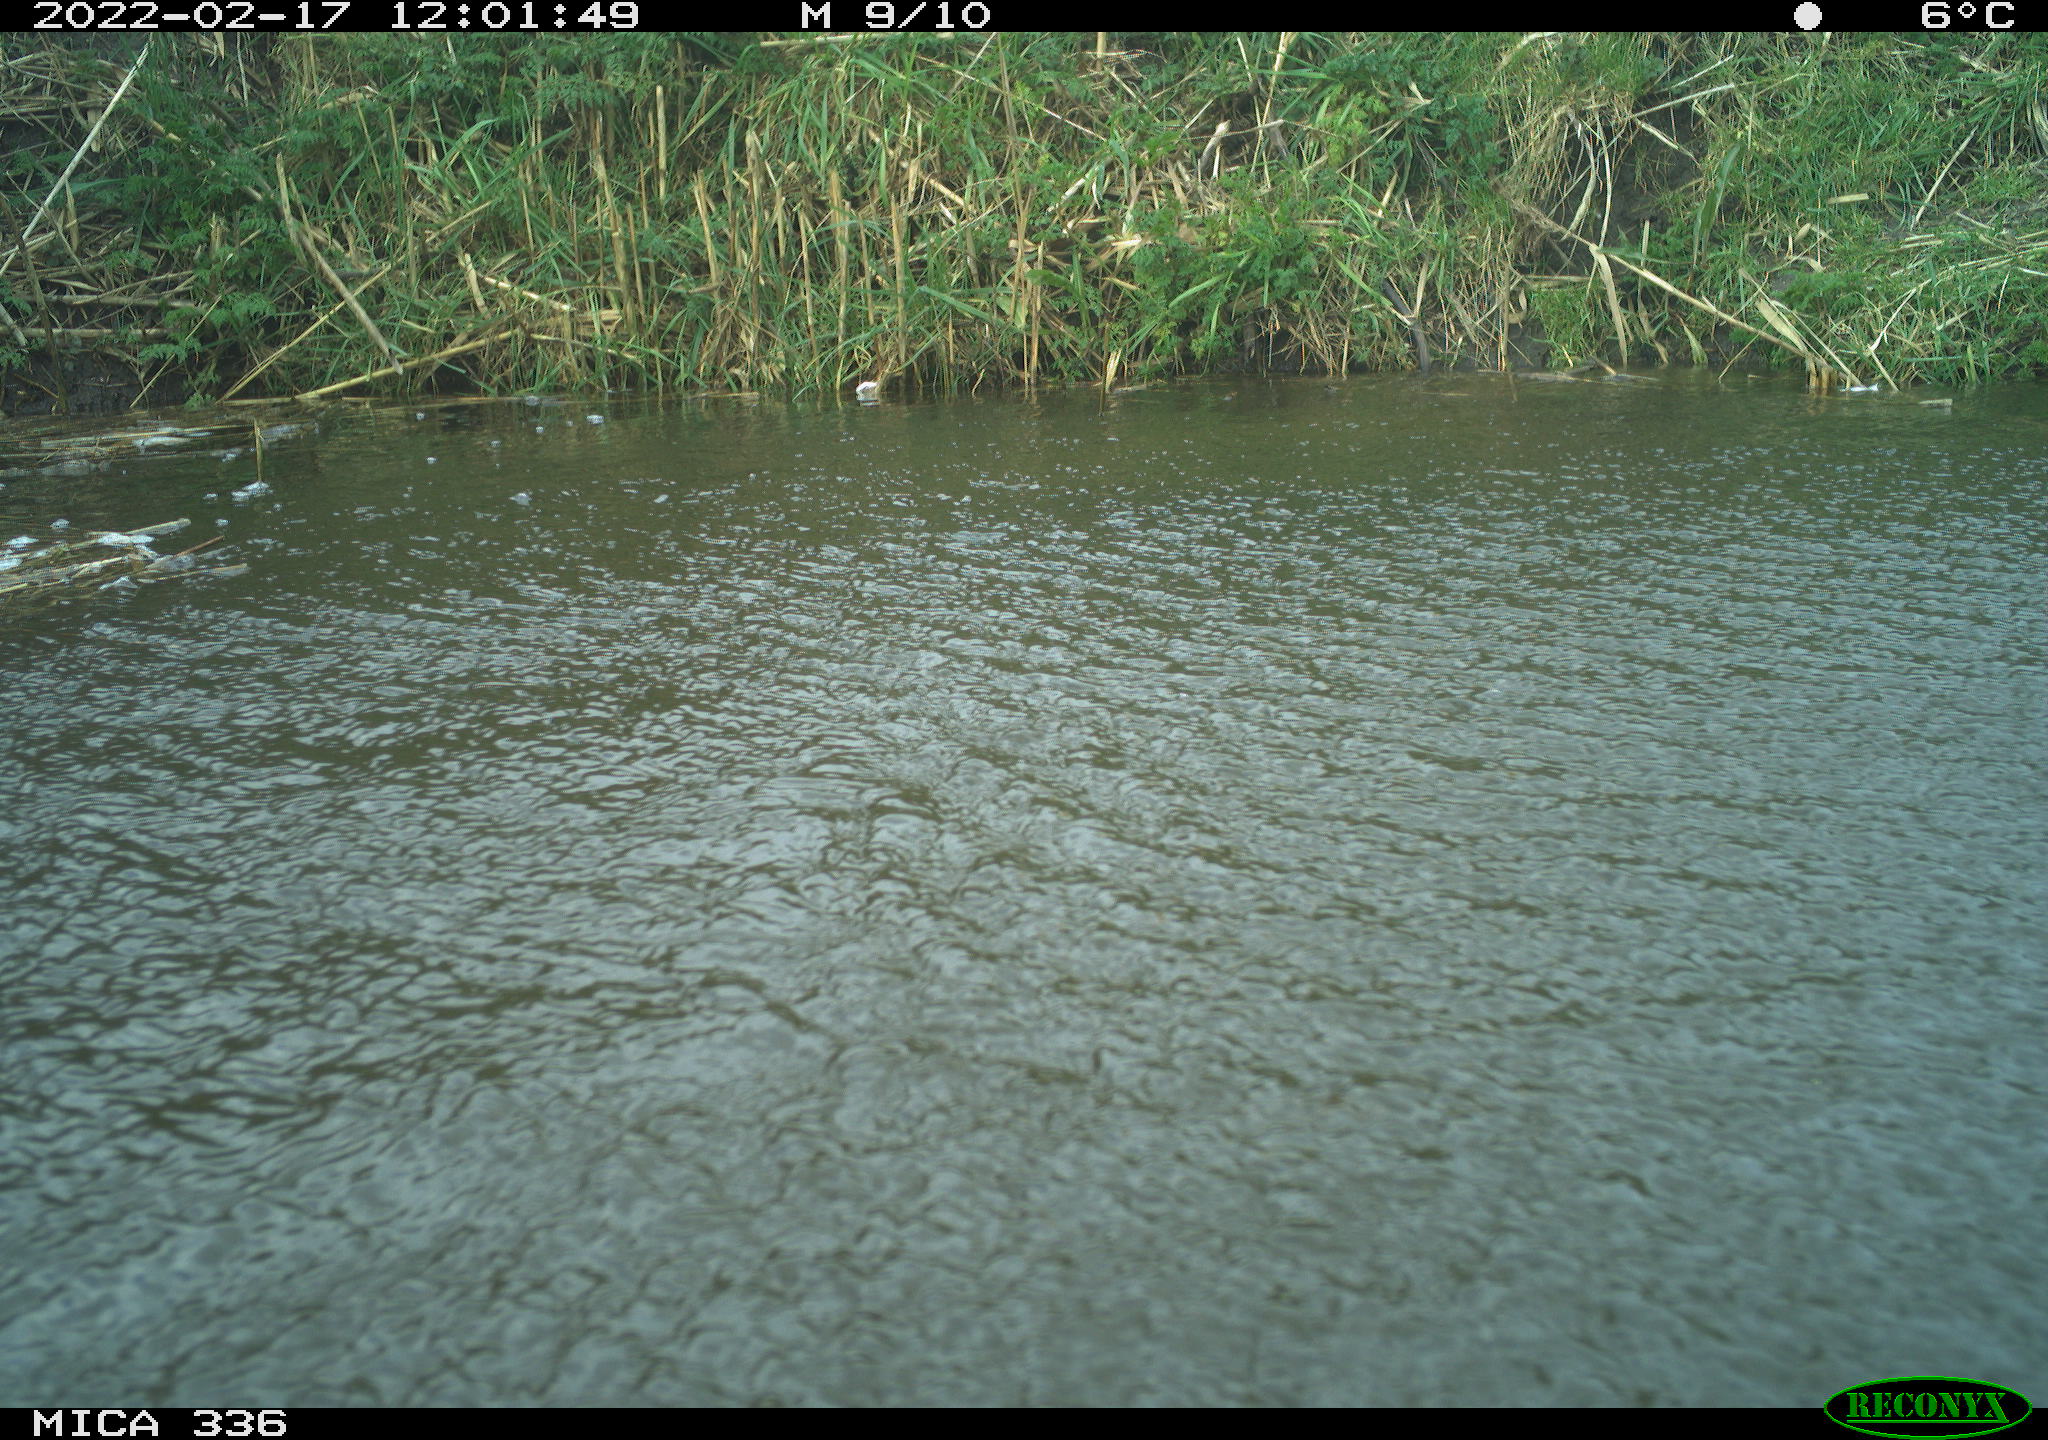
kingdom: Animalia
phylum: Chordata
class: Aves
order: Suliformes
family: Phalacrocoracidae
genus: Phalacrocorax
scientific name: Phalacrocorax carbo
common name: Great cormorant
